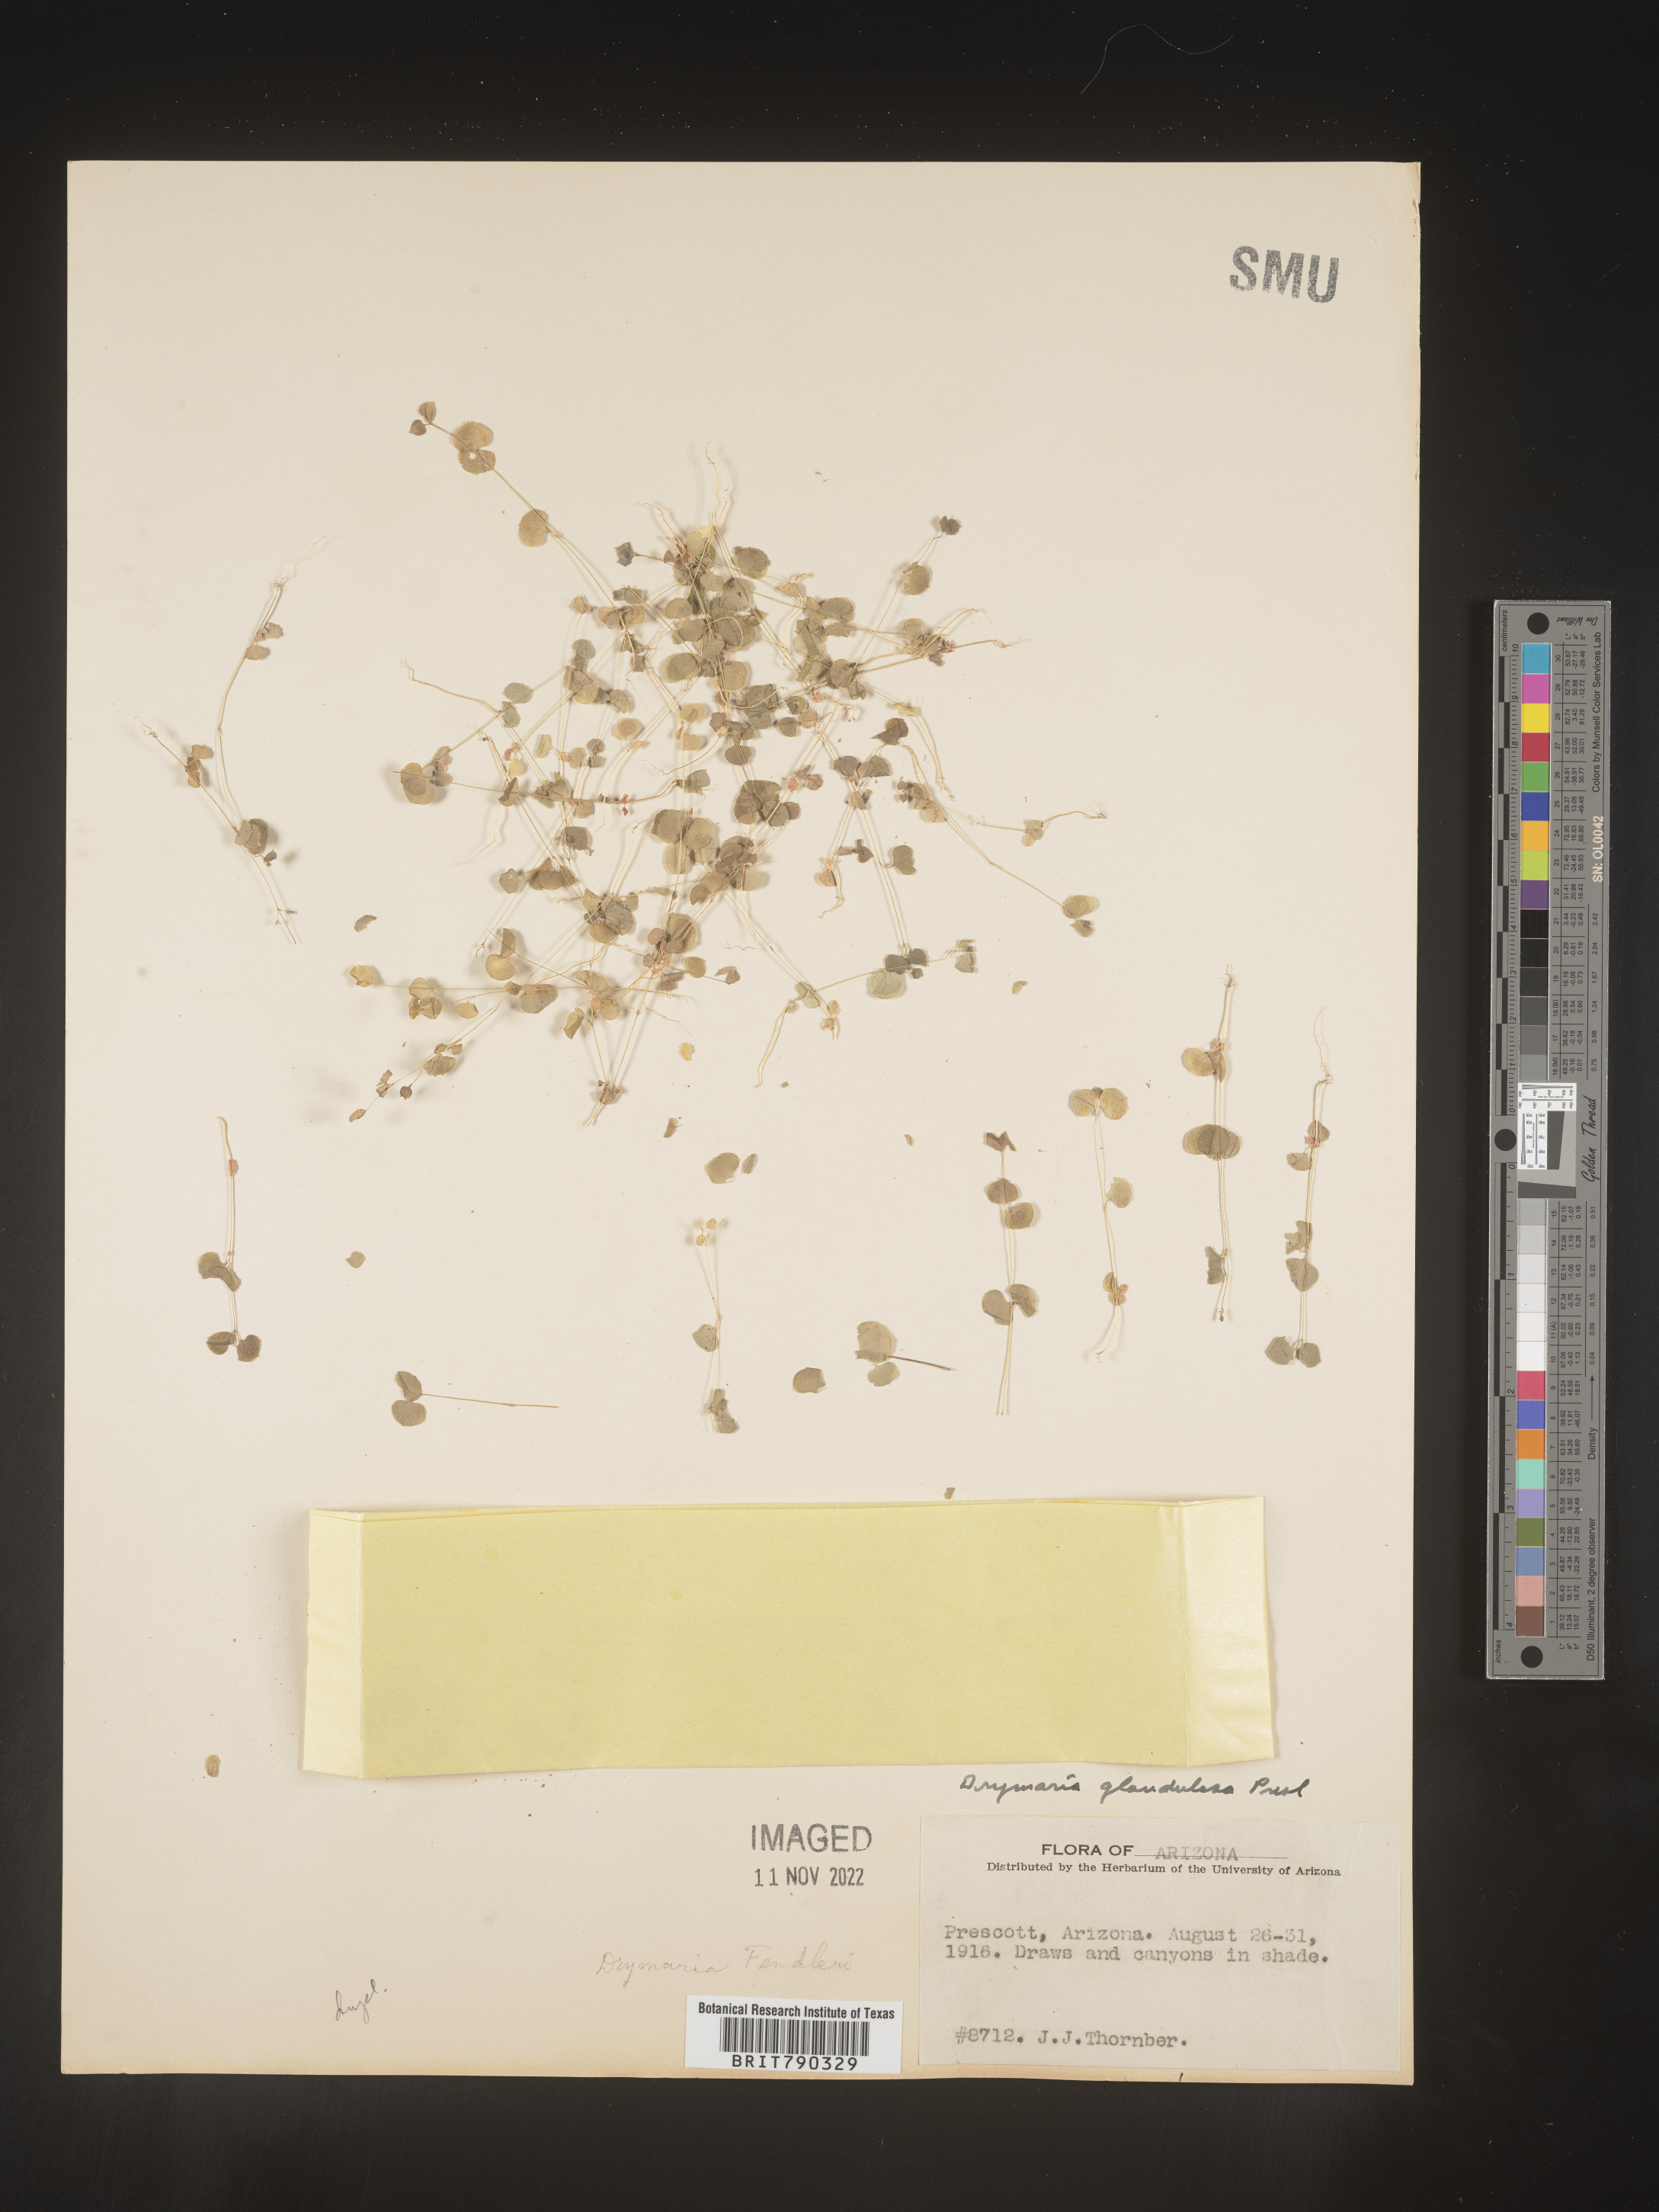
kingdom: Plantae
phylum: Tracheophyta
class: Magnoliopsida
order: Caryophyllales
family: Caryophyllaceae
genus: Drymaria
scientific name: Drymaria
